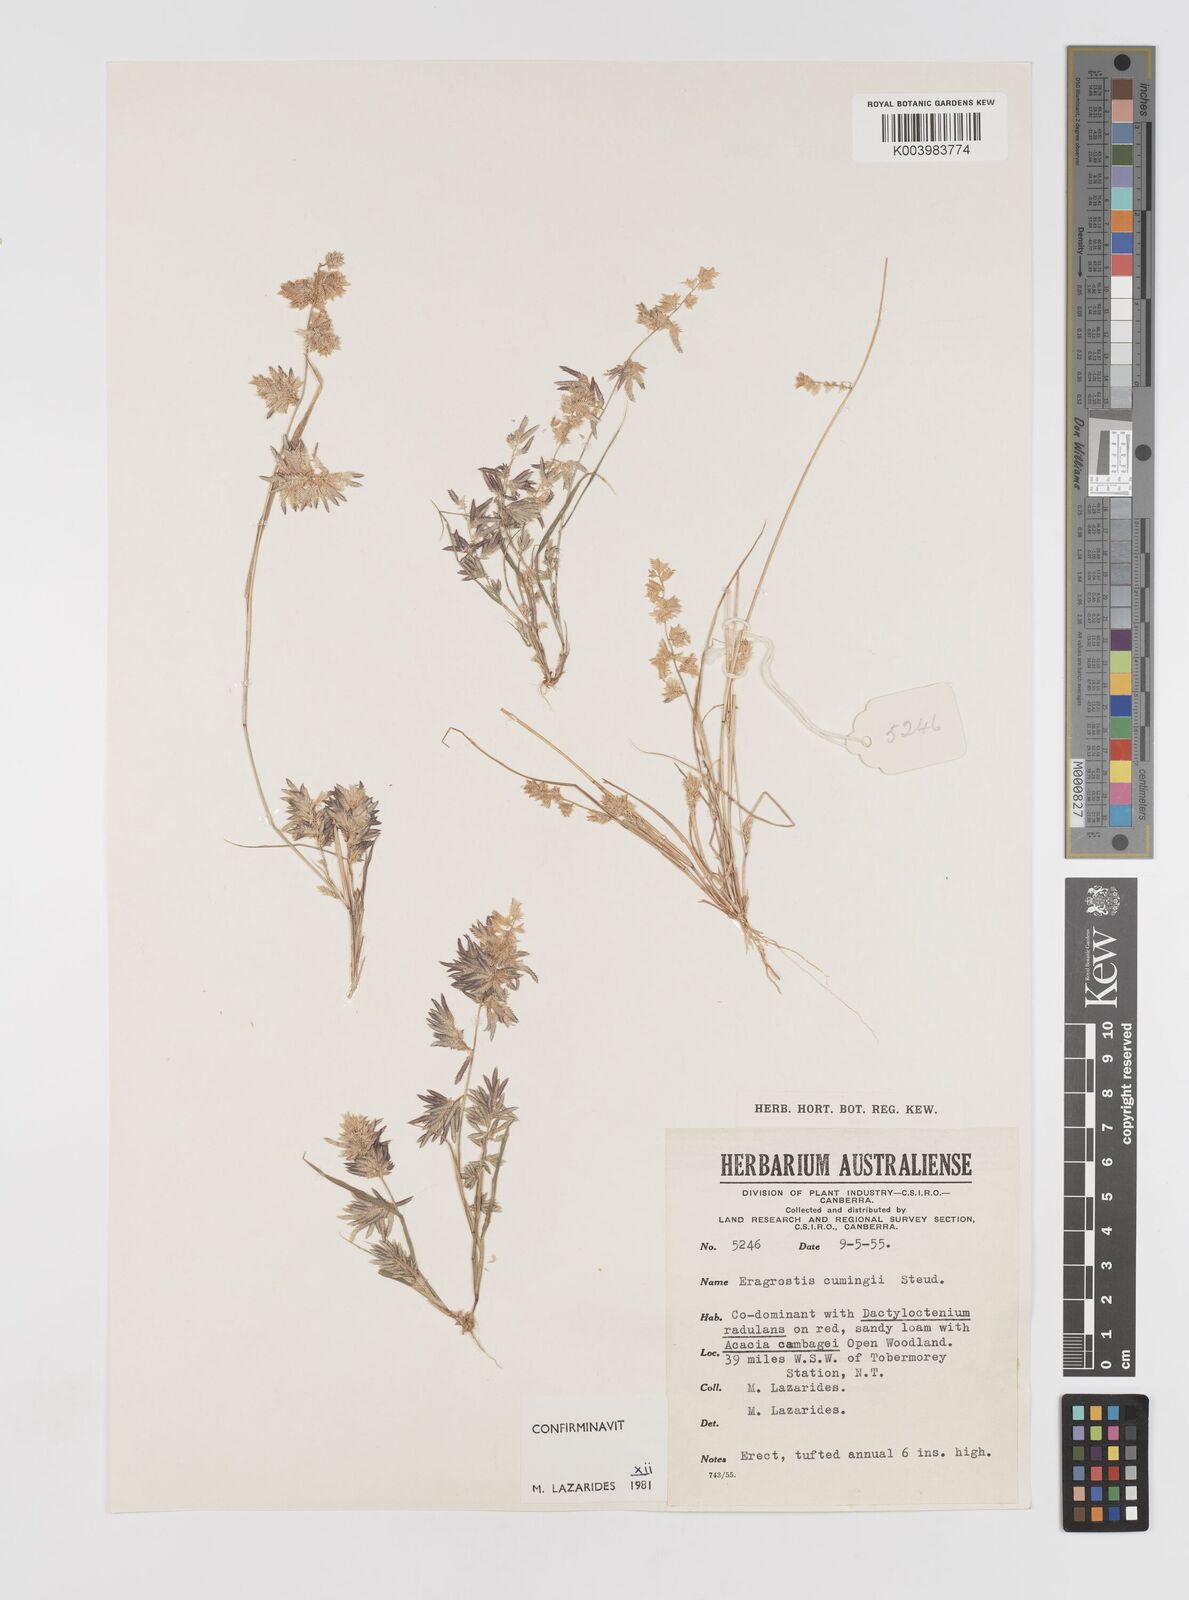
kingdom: Plantae
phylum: Tracheophyta
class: Liliopsida
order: Poales
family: Poaceae
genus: Eragrostis
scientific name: Eragrostis cumingii
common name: Cuming's lovegrass
